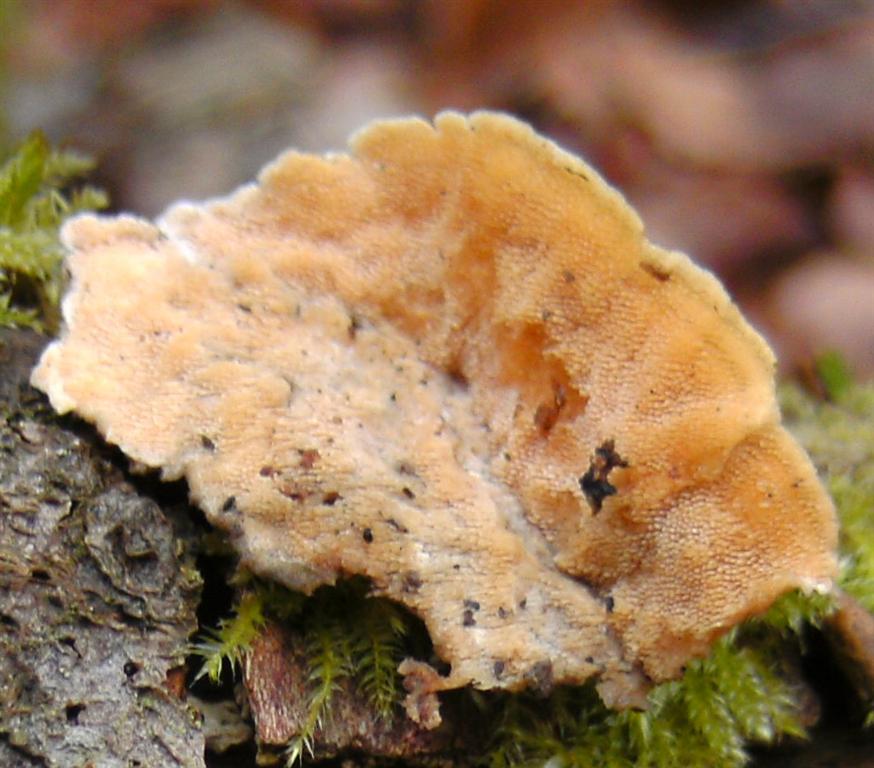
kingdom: Fungi
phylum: Basidiomycota
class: Agaricomycetes
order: Polyporales
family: Steccherinaceae
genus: Steccherinum
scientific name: Steccherinum ochraceum
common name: almindelig skønpig
